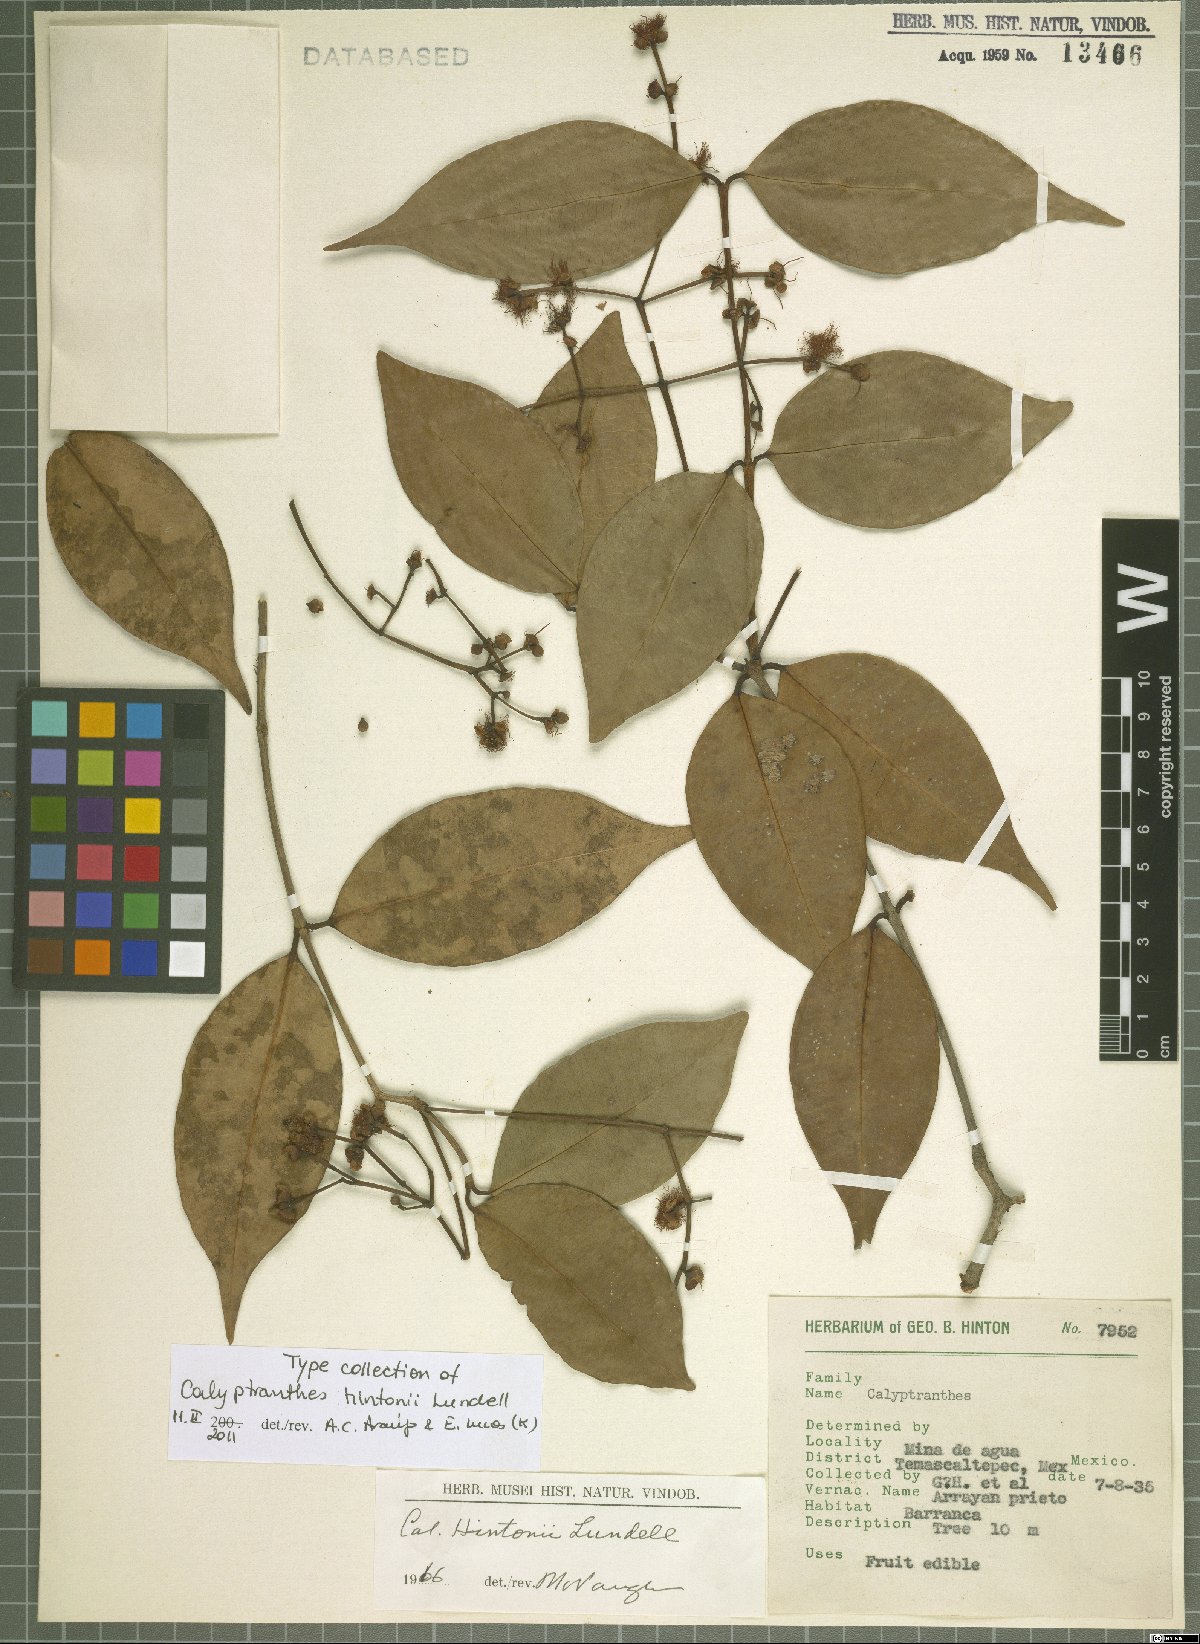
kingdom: Plantae
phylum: Tracheophyta
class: Magnoliopsida
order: Myrtales
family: Myrtaceae
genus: Myrcia
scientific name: Myrcia hintonii
